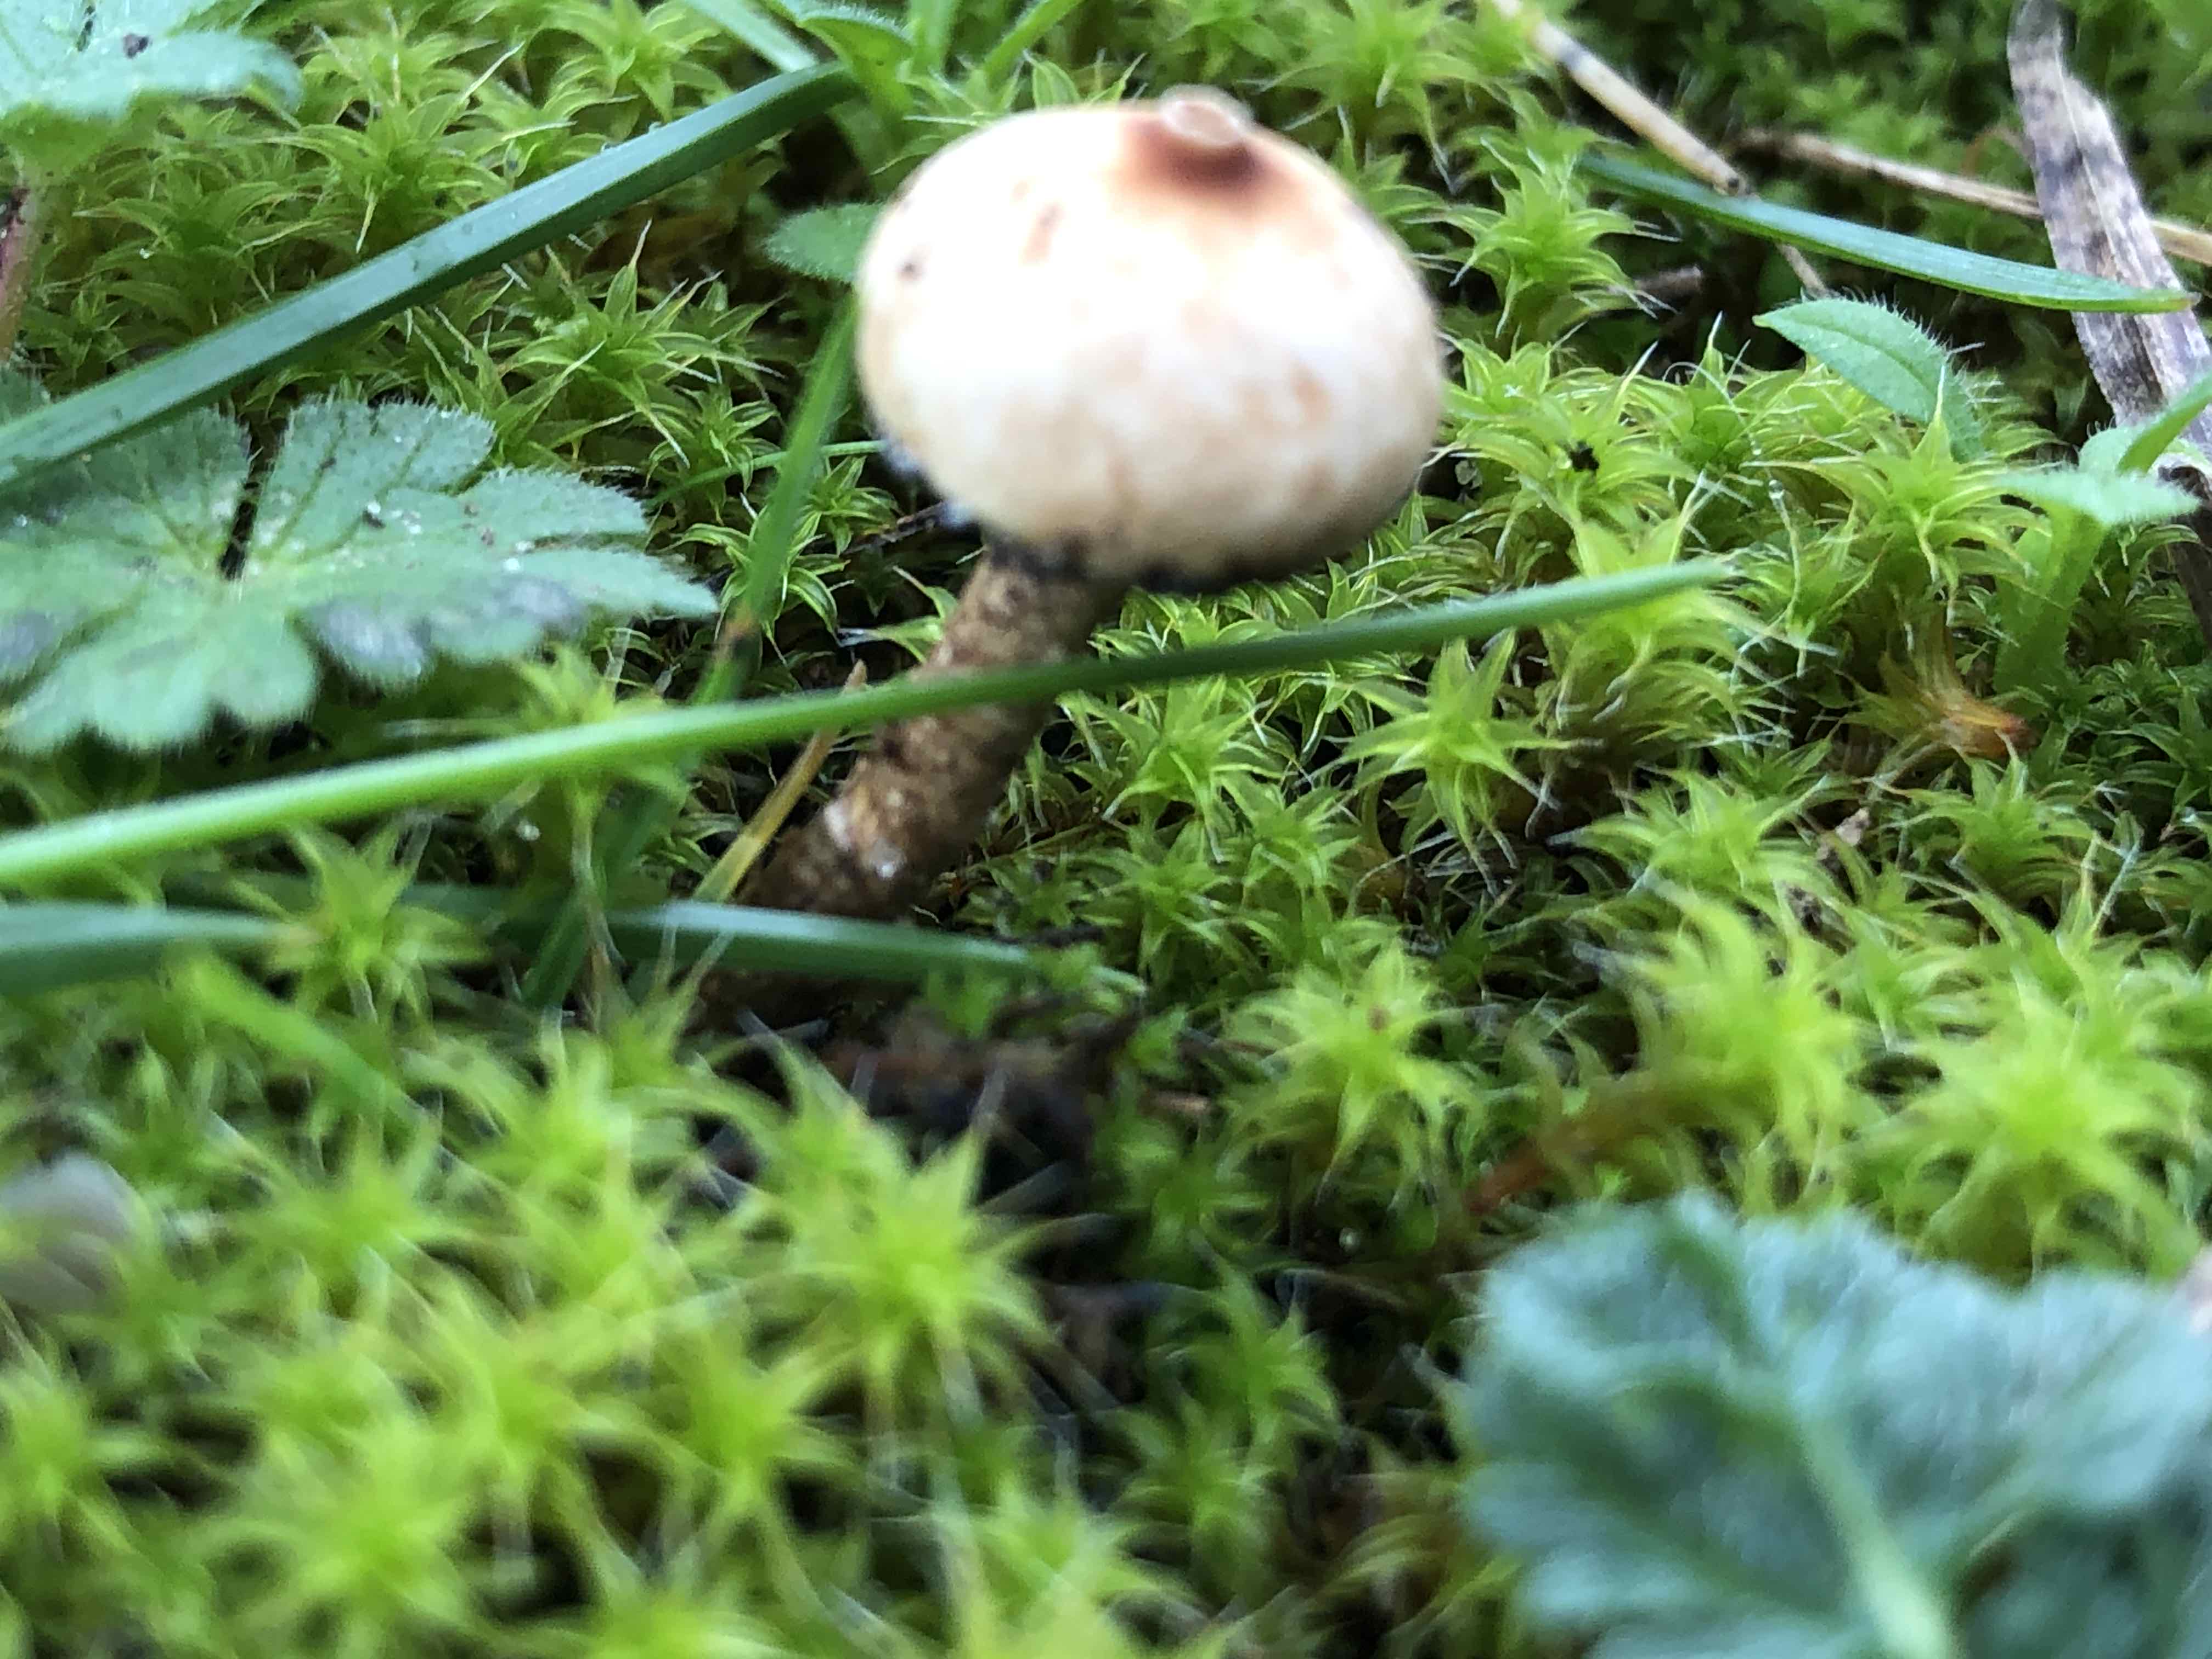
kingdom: Fungi
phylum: Basidiomycota
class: Agaricomycetes
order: Agaricales
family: Agaricaceae
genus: Tulostoma
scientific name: Tulostoma brumale
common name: vinter-stilkbovist
